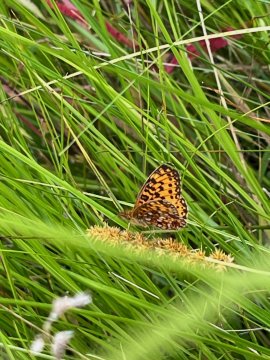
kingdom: Animalia
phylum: Arthropoda
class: Insecta
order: Lepidoptera
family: Nymphalidae
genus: Boloria
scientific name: Boloria selene
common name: Silver-bordered Fritillary
